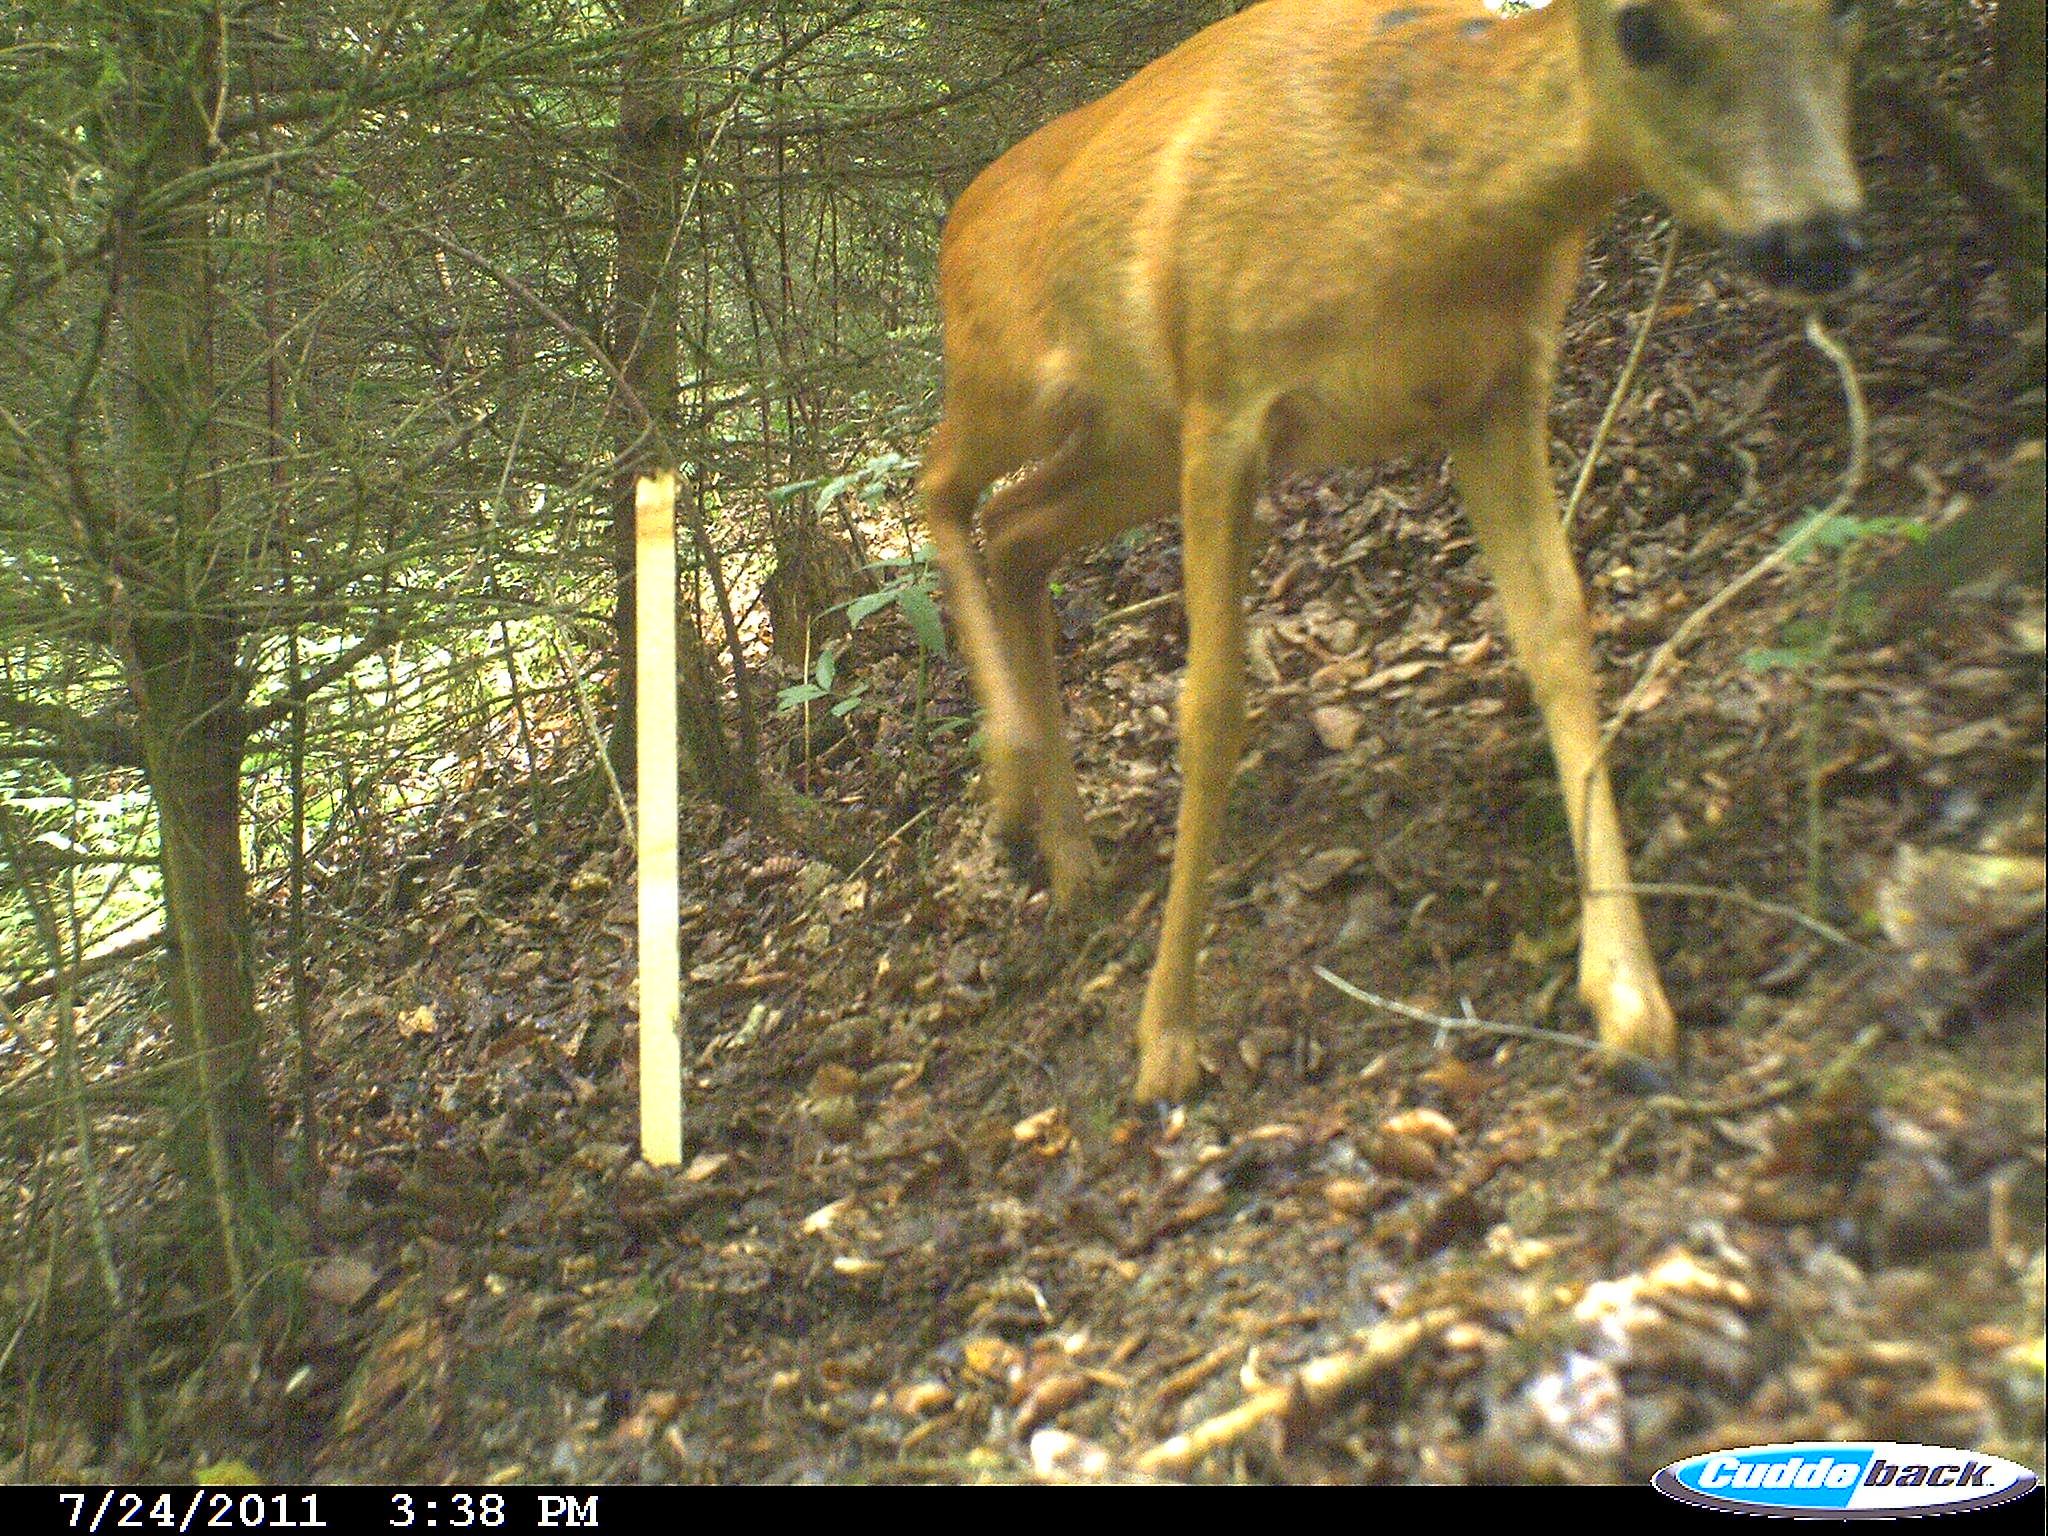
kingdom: Animalia
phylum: Chordata
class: Mammalia
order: Artiodactyla
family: Cervidae
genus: Capreolus
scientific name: Capreolus capreolus
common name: Western roe deer
